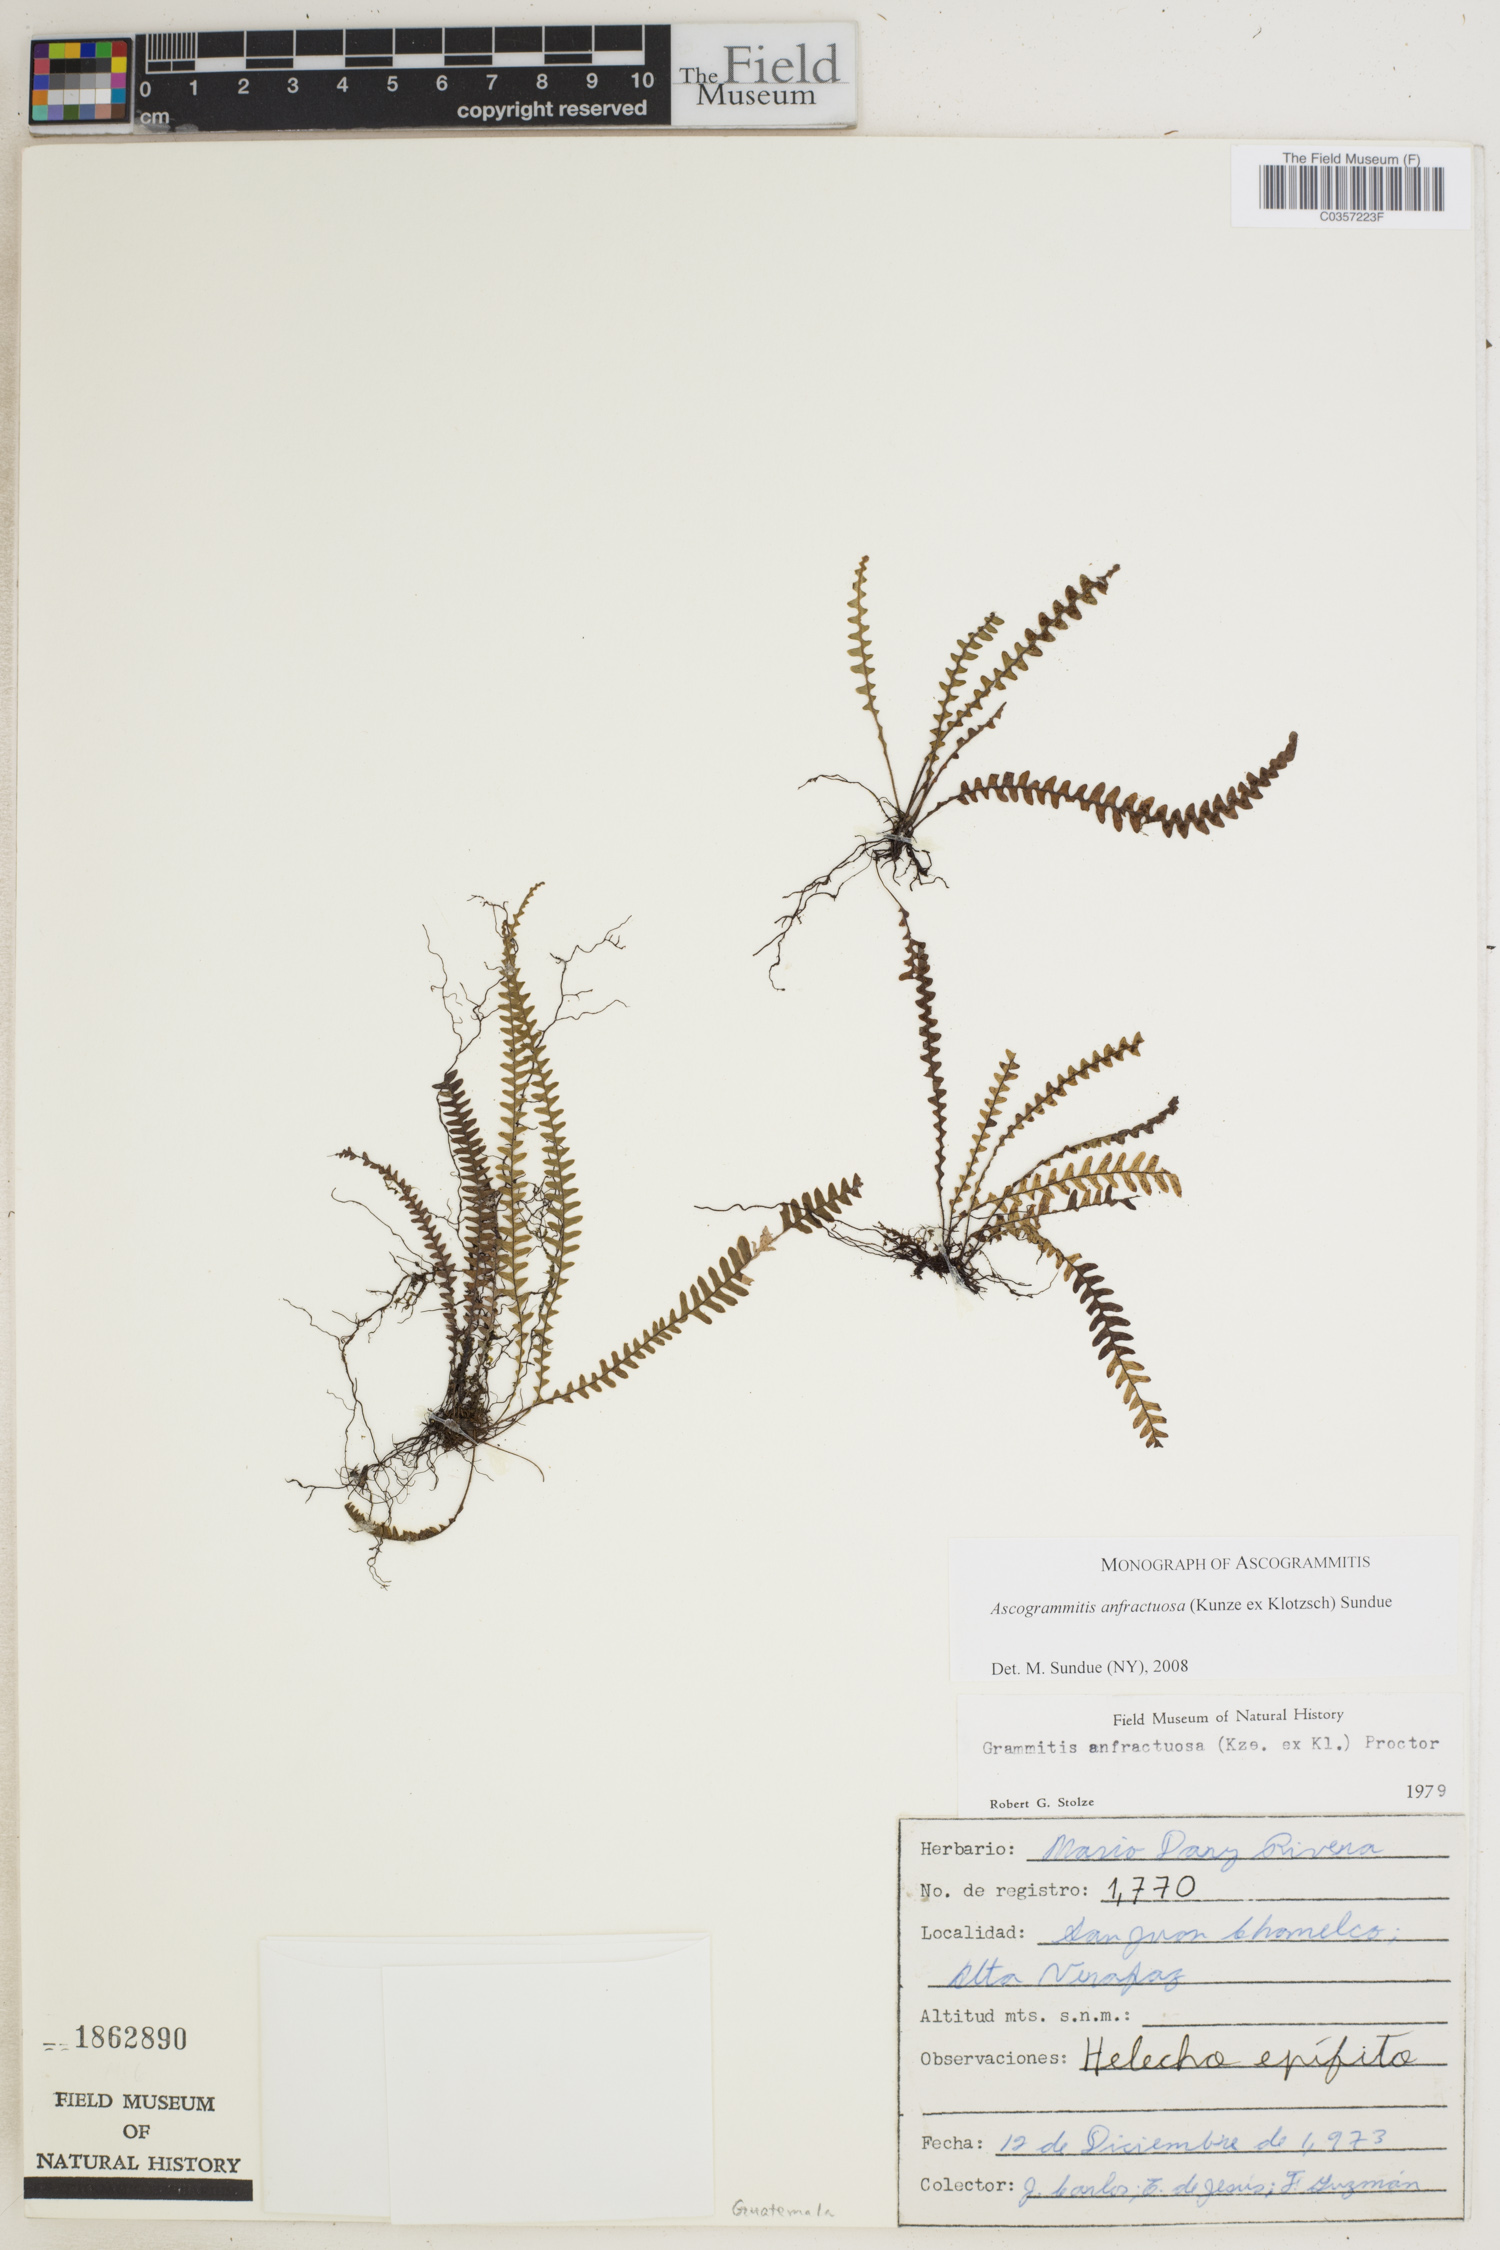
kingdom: Plantae
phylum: Tracheophyta
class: Polypodiopsida
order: Polypodiales
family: Polypodiaceae
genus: Ascogrammitis
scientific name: Ascogrammitis anfractuosa
